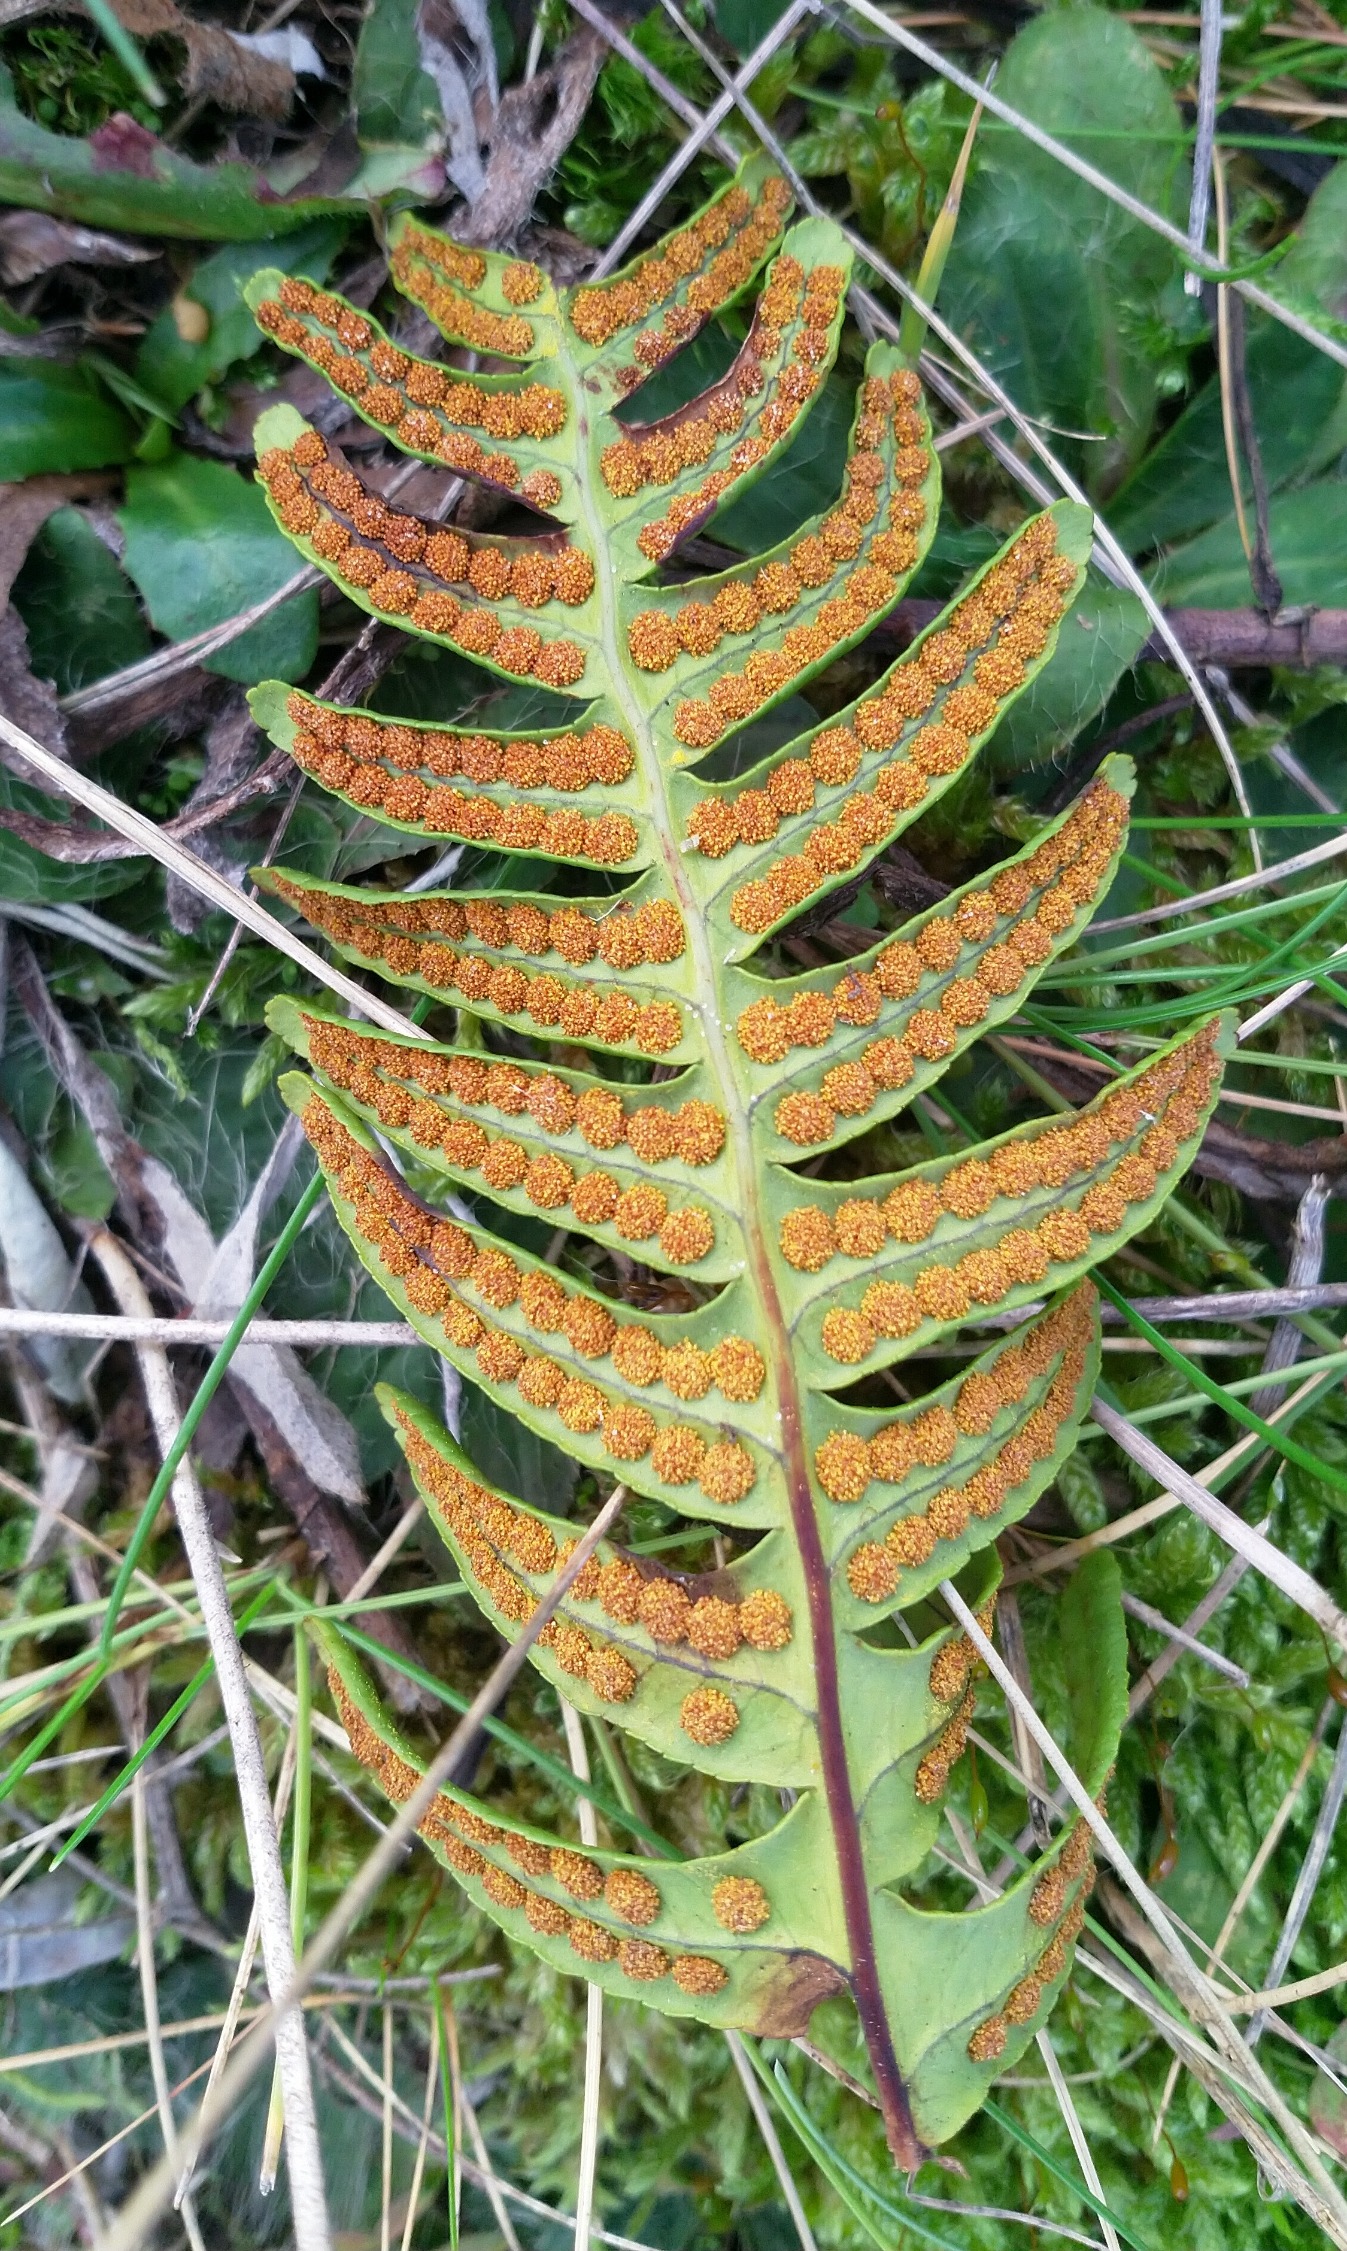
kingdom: Plantae
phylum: Tracheophyta
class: Polypodiopsida
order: Polypodiales
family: Polypodiaceae
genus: Polypodium
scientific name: Polypodium vulgare
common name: Almindelig engelsød
